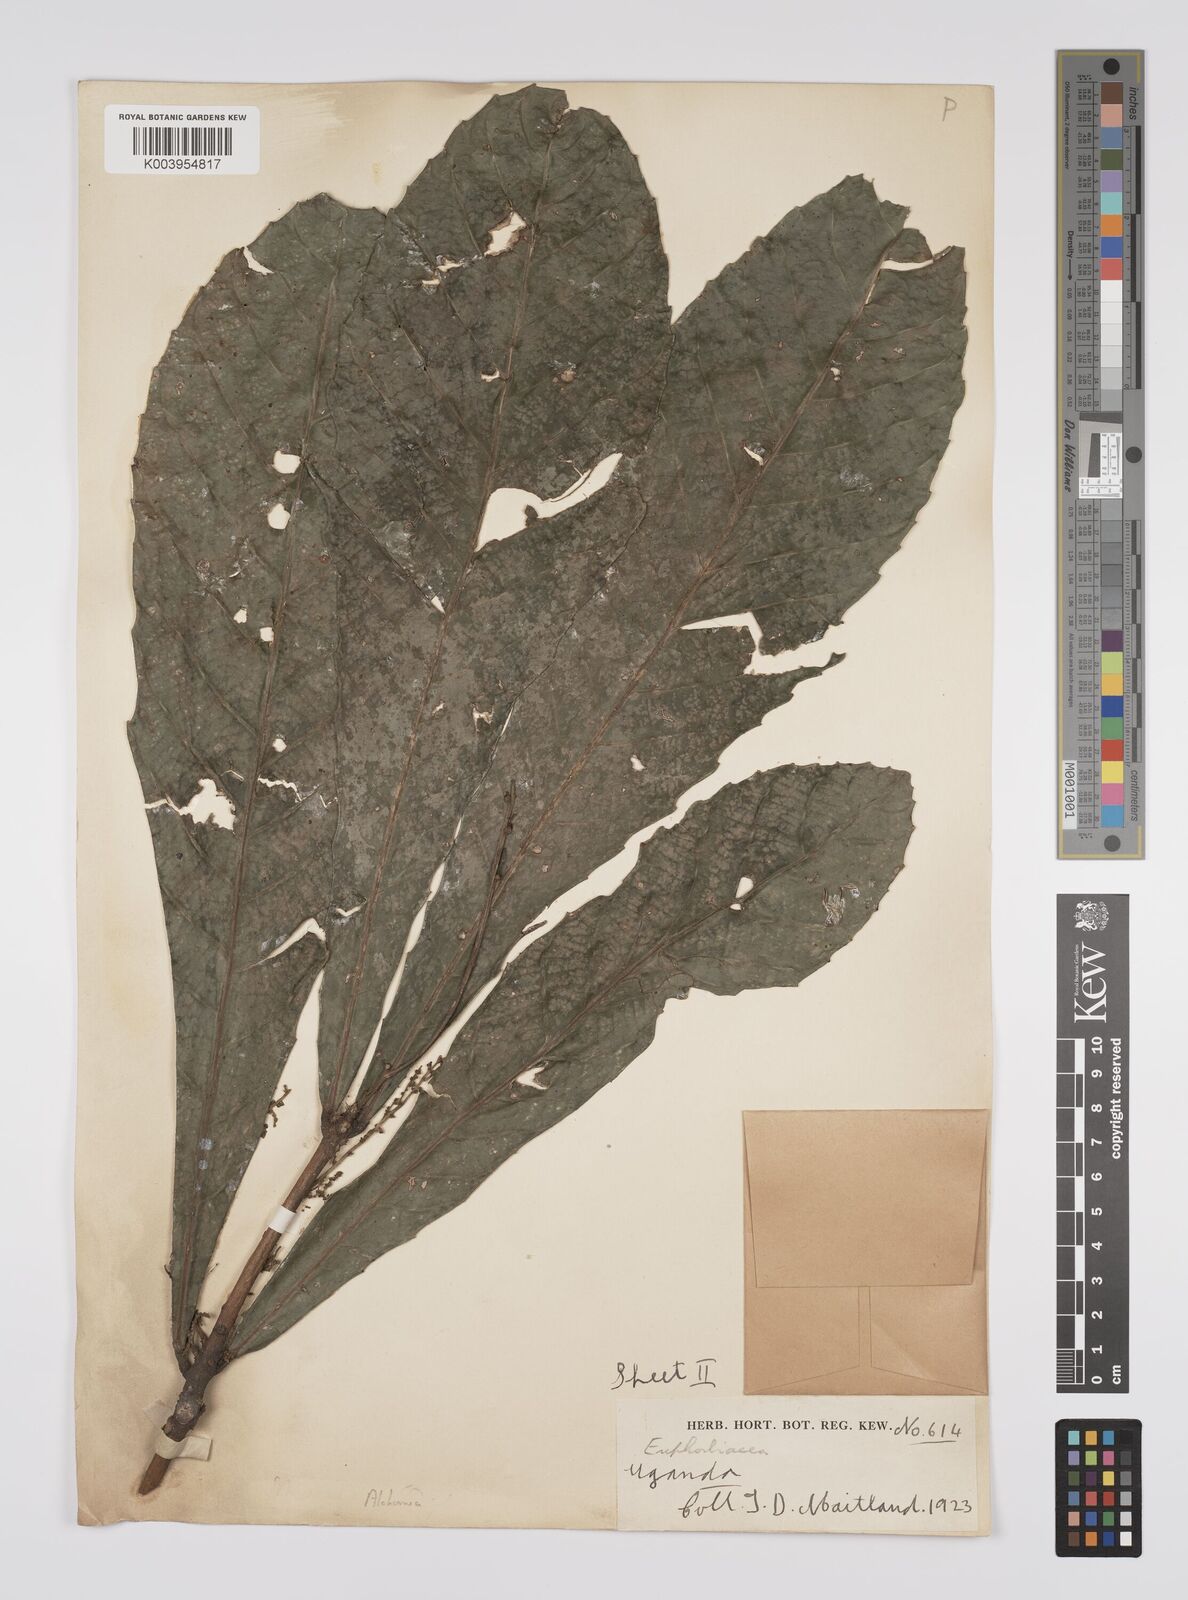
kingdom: Plantae
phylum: Tracheophyta
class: Magnoliopsida
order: Malpighiales
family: Euphorbiaceae
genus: Alchornea
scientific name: Alchornea floribunda
